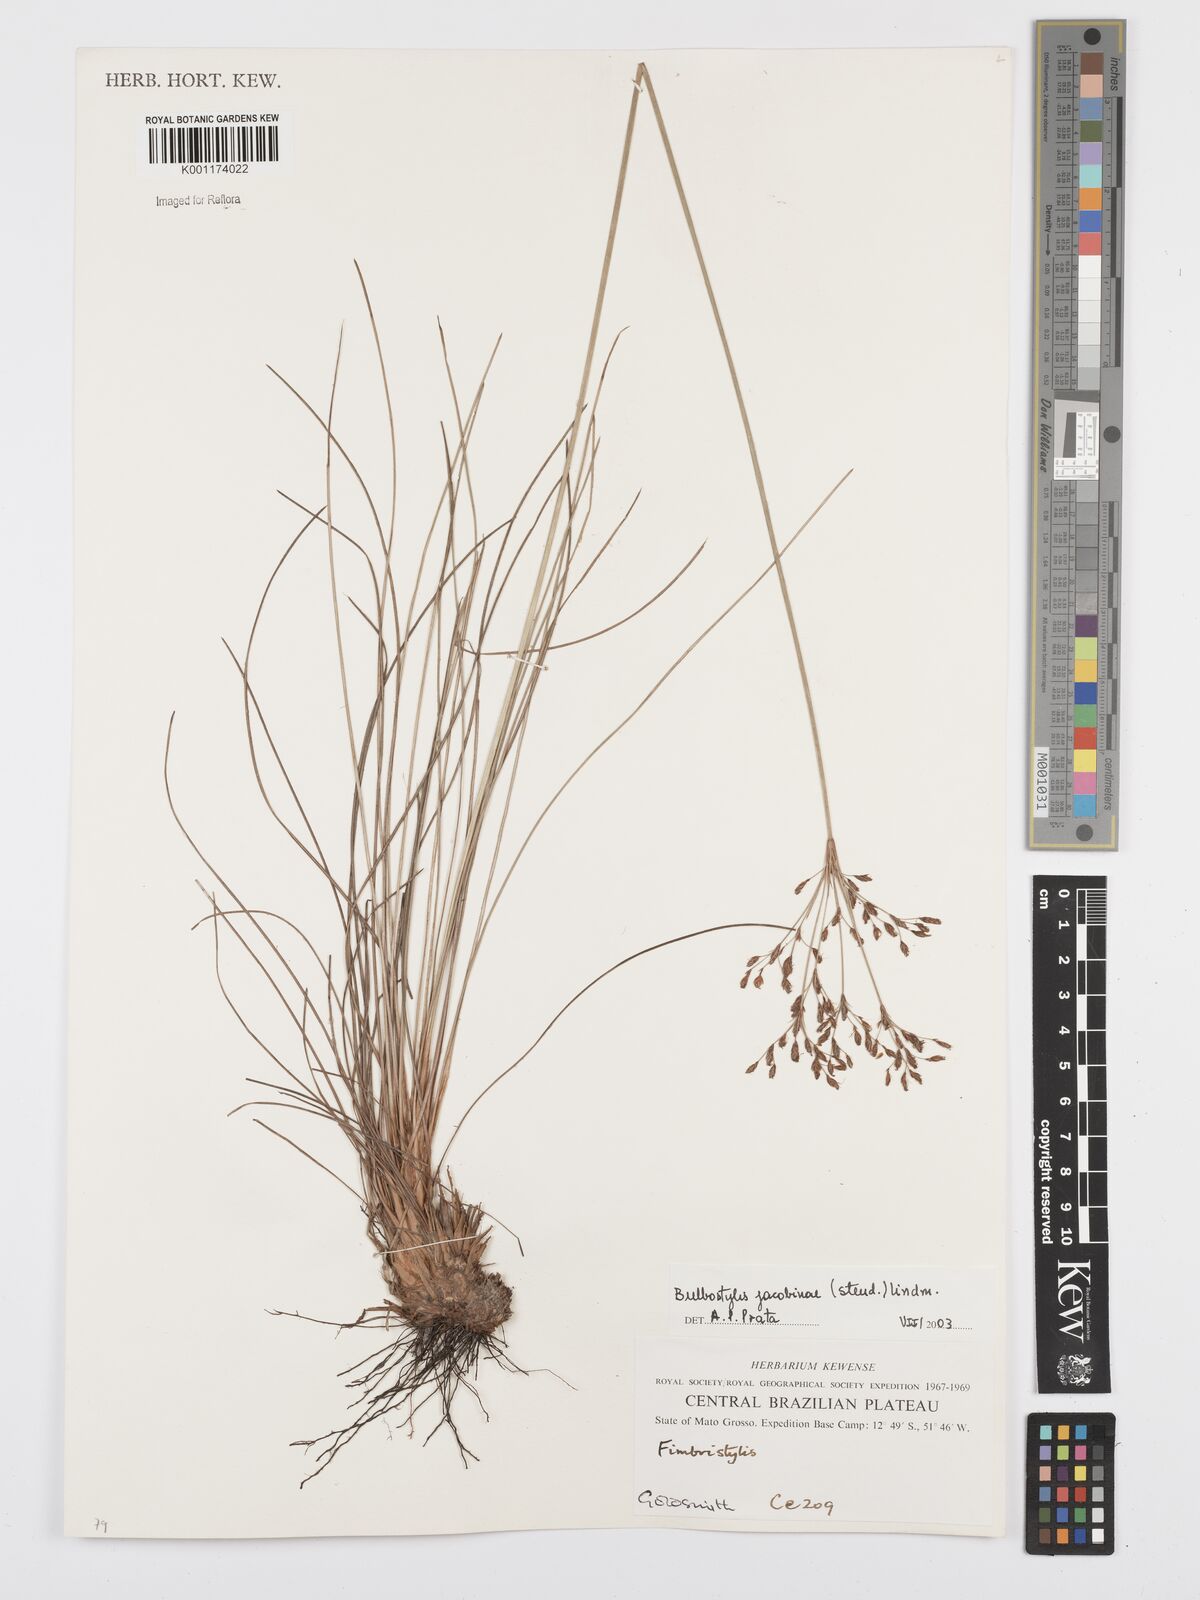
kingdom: Plantae
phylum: Tracheophyta
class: Liliopsida
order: Poales
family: Cyperaceae
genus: Bulbostylis
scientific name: Bulbostylis jacobinae
